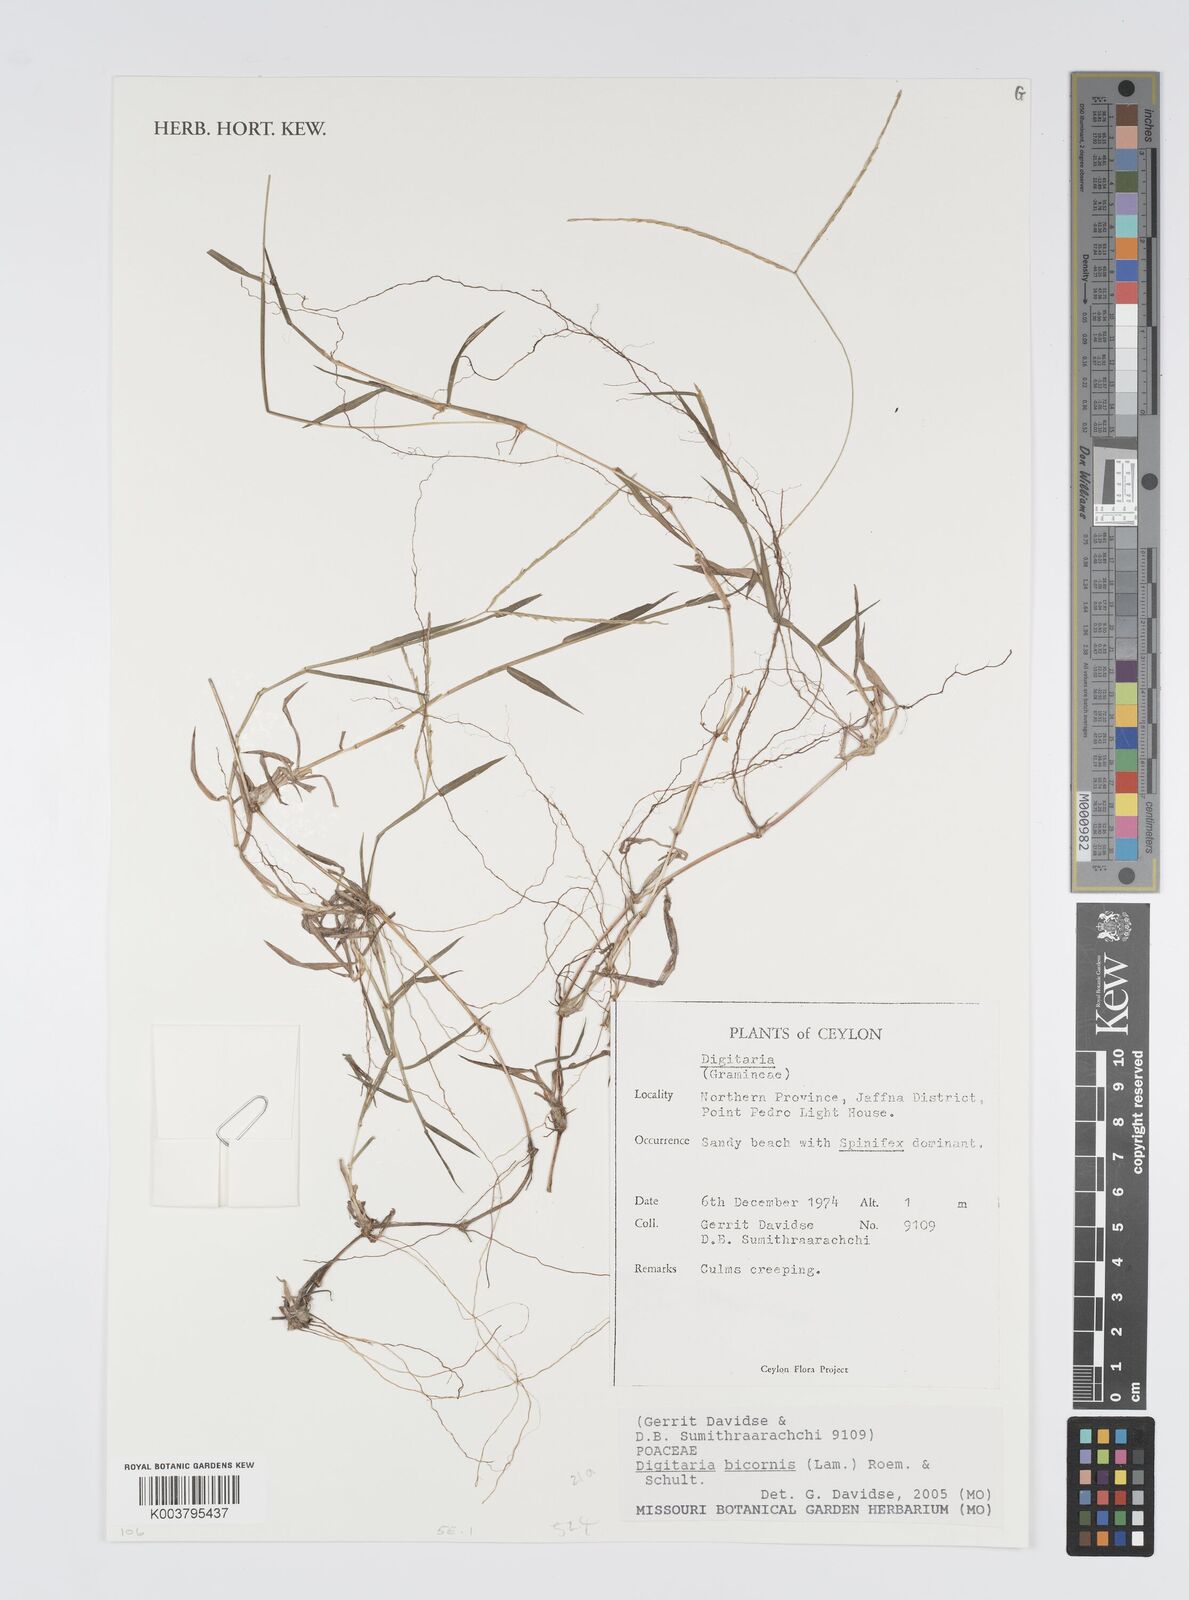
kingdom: Plantae
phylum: Tracheophyta
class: Liliopsida
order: Poales
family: Poaceae
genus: Digitaria
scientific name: Digitaria bicornis
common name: Asian crabgrass
